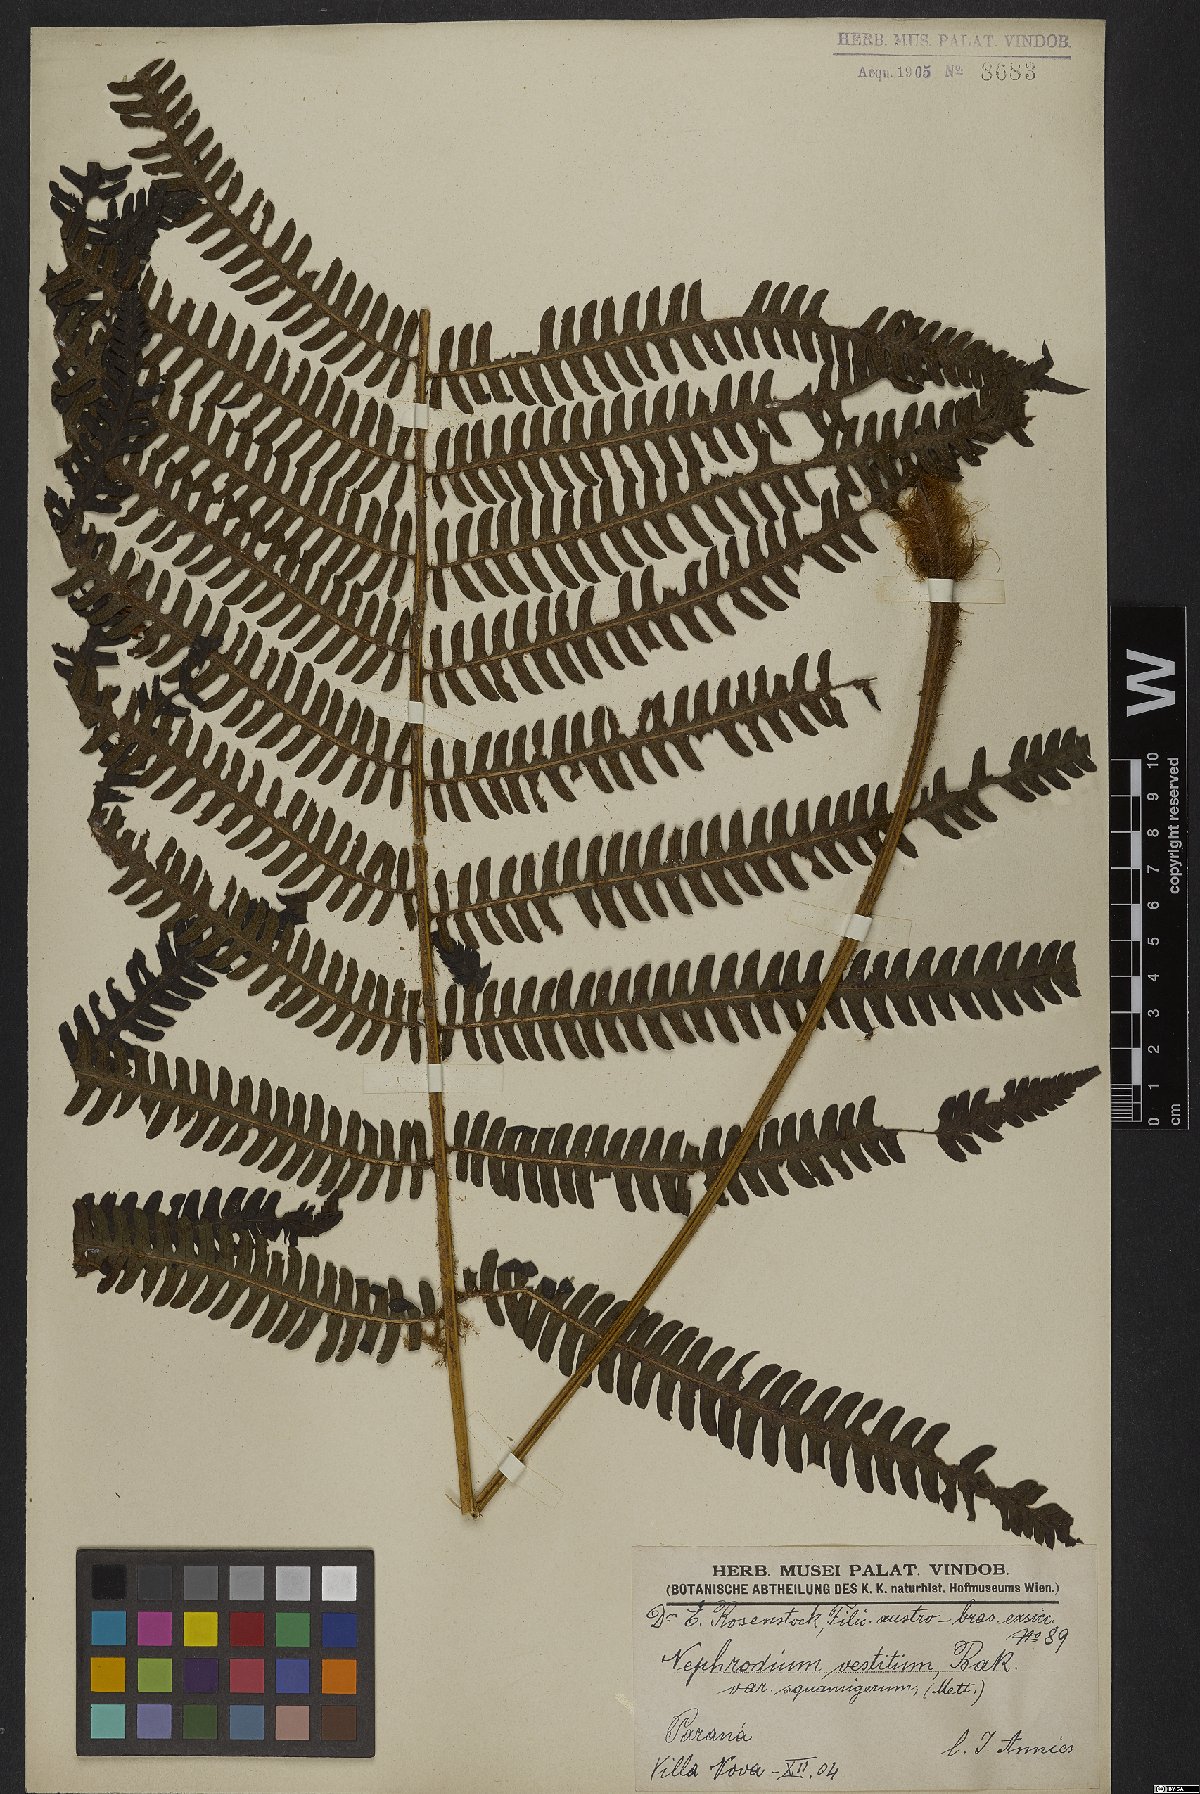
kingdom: Plantae
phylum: Tracheophyta
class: Polypodiopsida
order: Polypodiales
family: Dryopteridaceae
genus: Ctenitis
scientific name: Ctenitis deflexa
